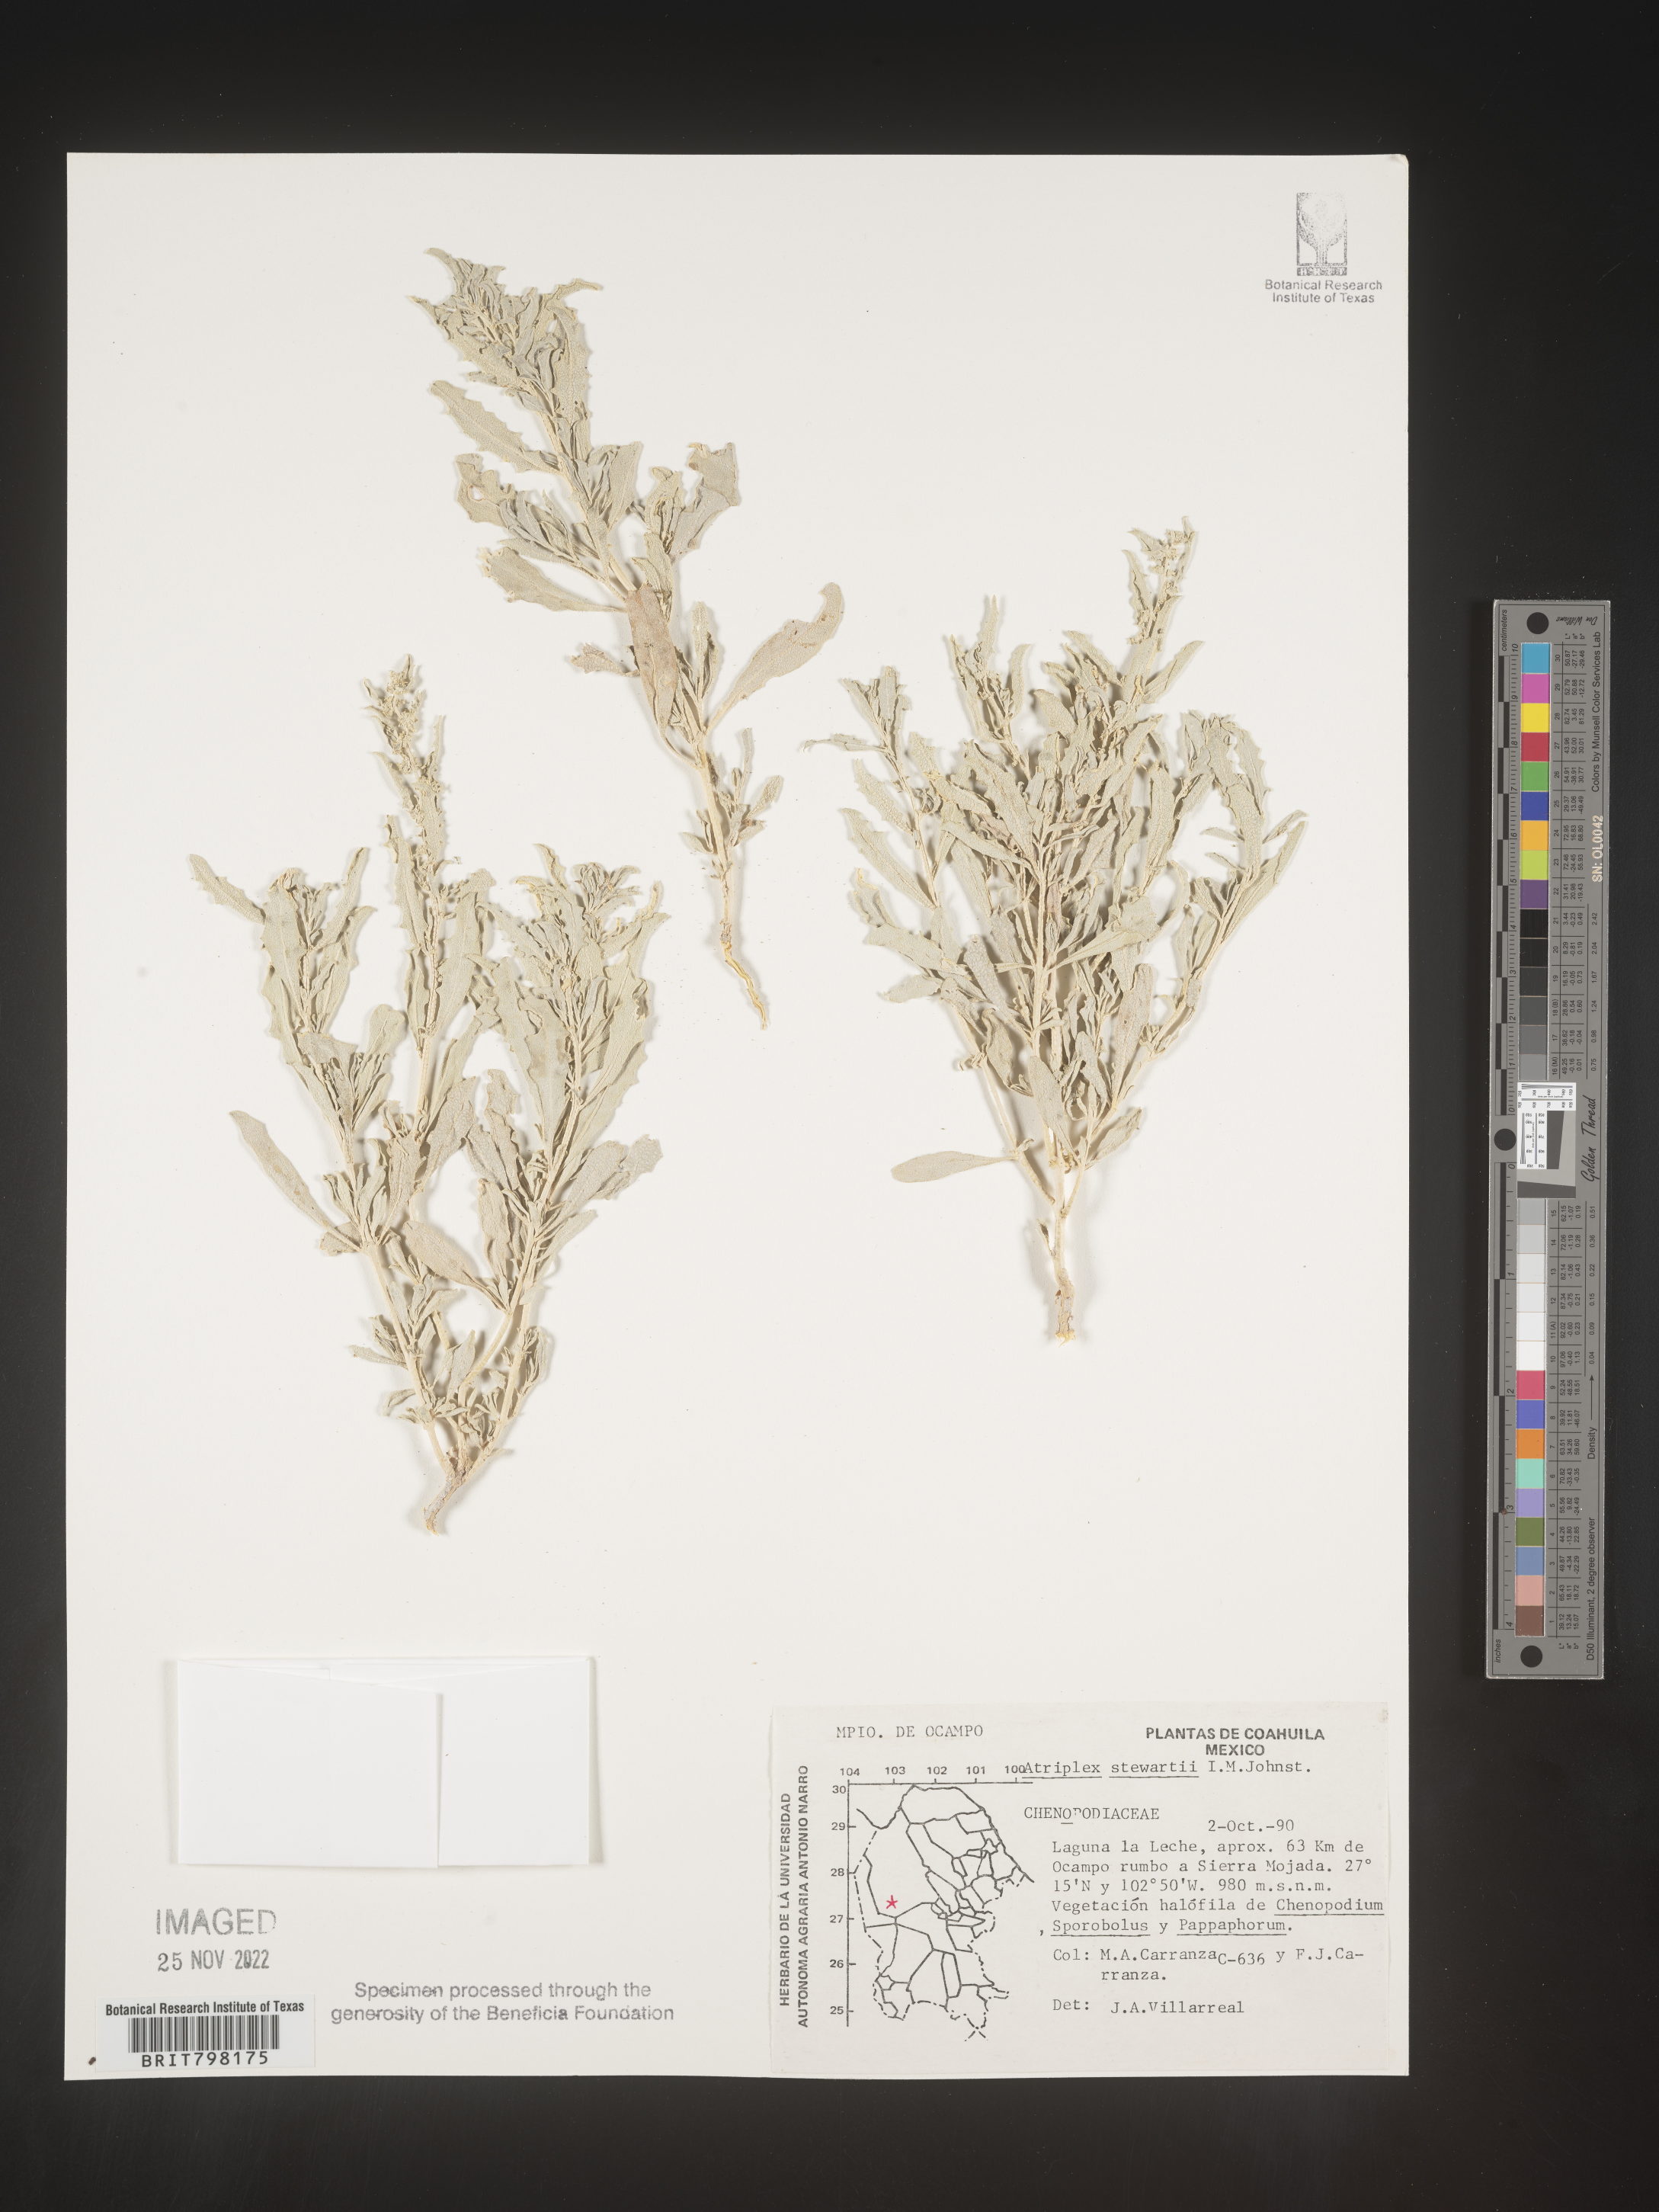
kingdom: Plantae
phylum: Tracheophyta
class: Magnoliopsida
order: Caryophyllales
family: Amaranthaceae
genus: Atriplex
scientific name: Atriplex
